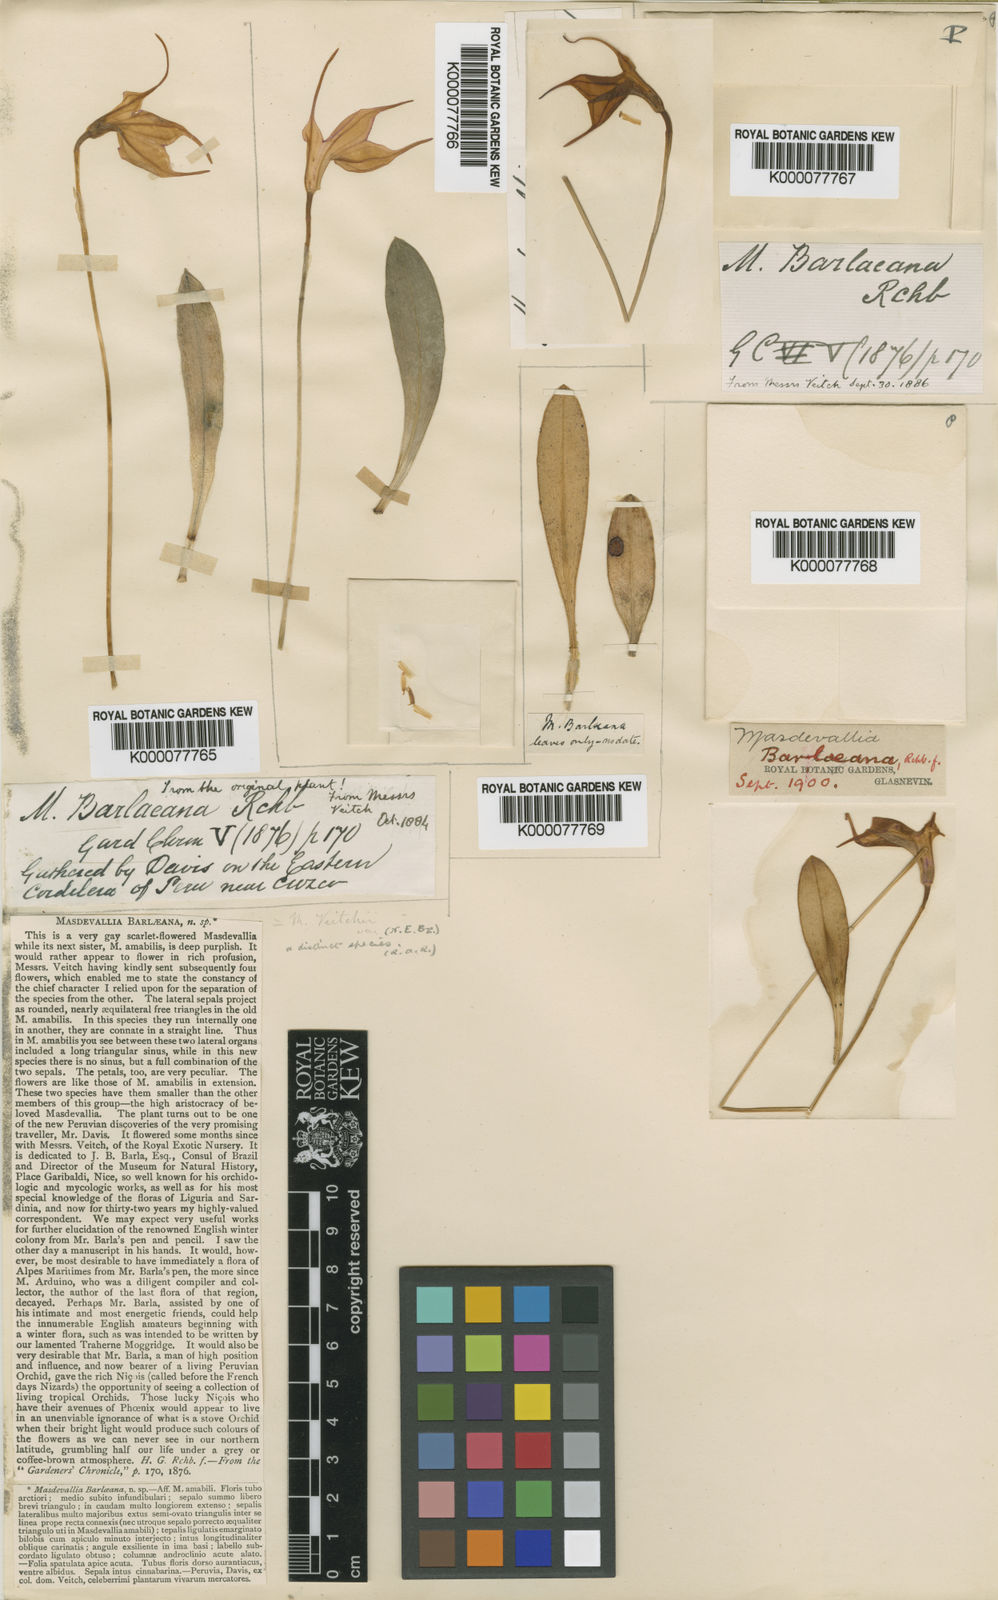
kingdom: Plantae
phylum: Tracheophyta
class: Liliopsida
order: Asparagales
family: Orchidaceae
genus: Masdevallia
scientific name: Masdevallia barlaeana
